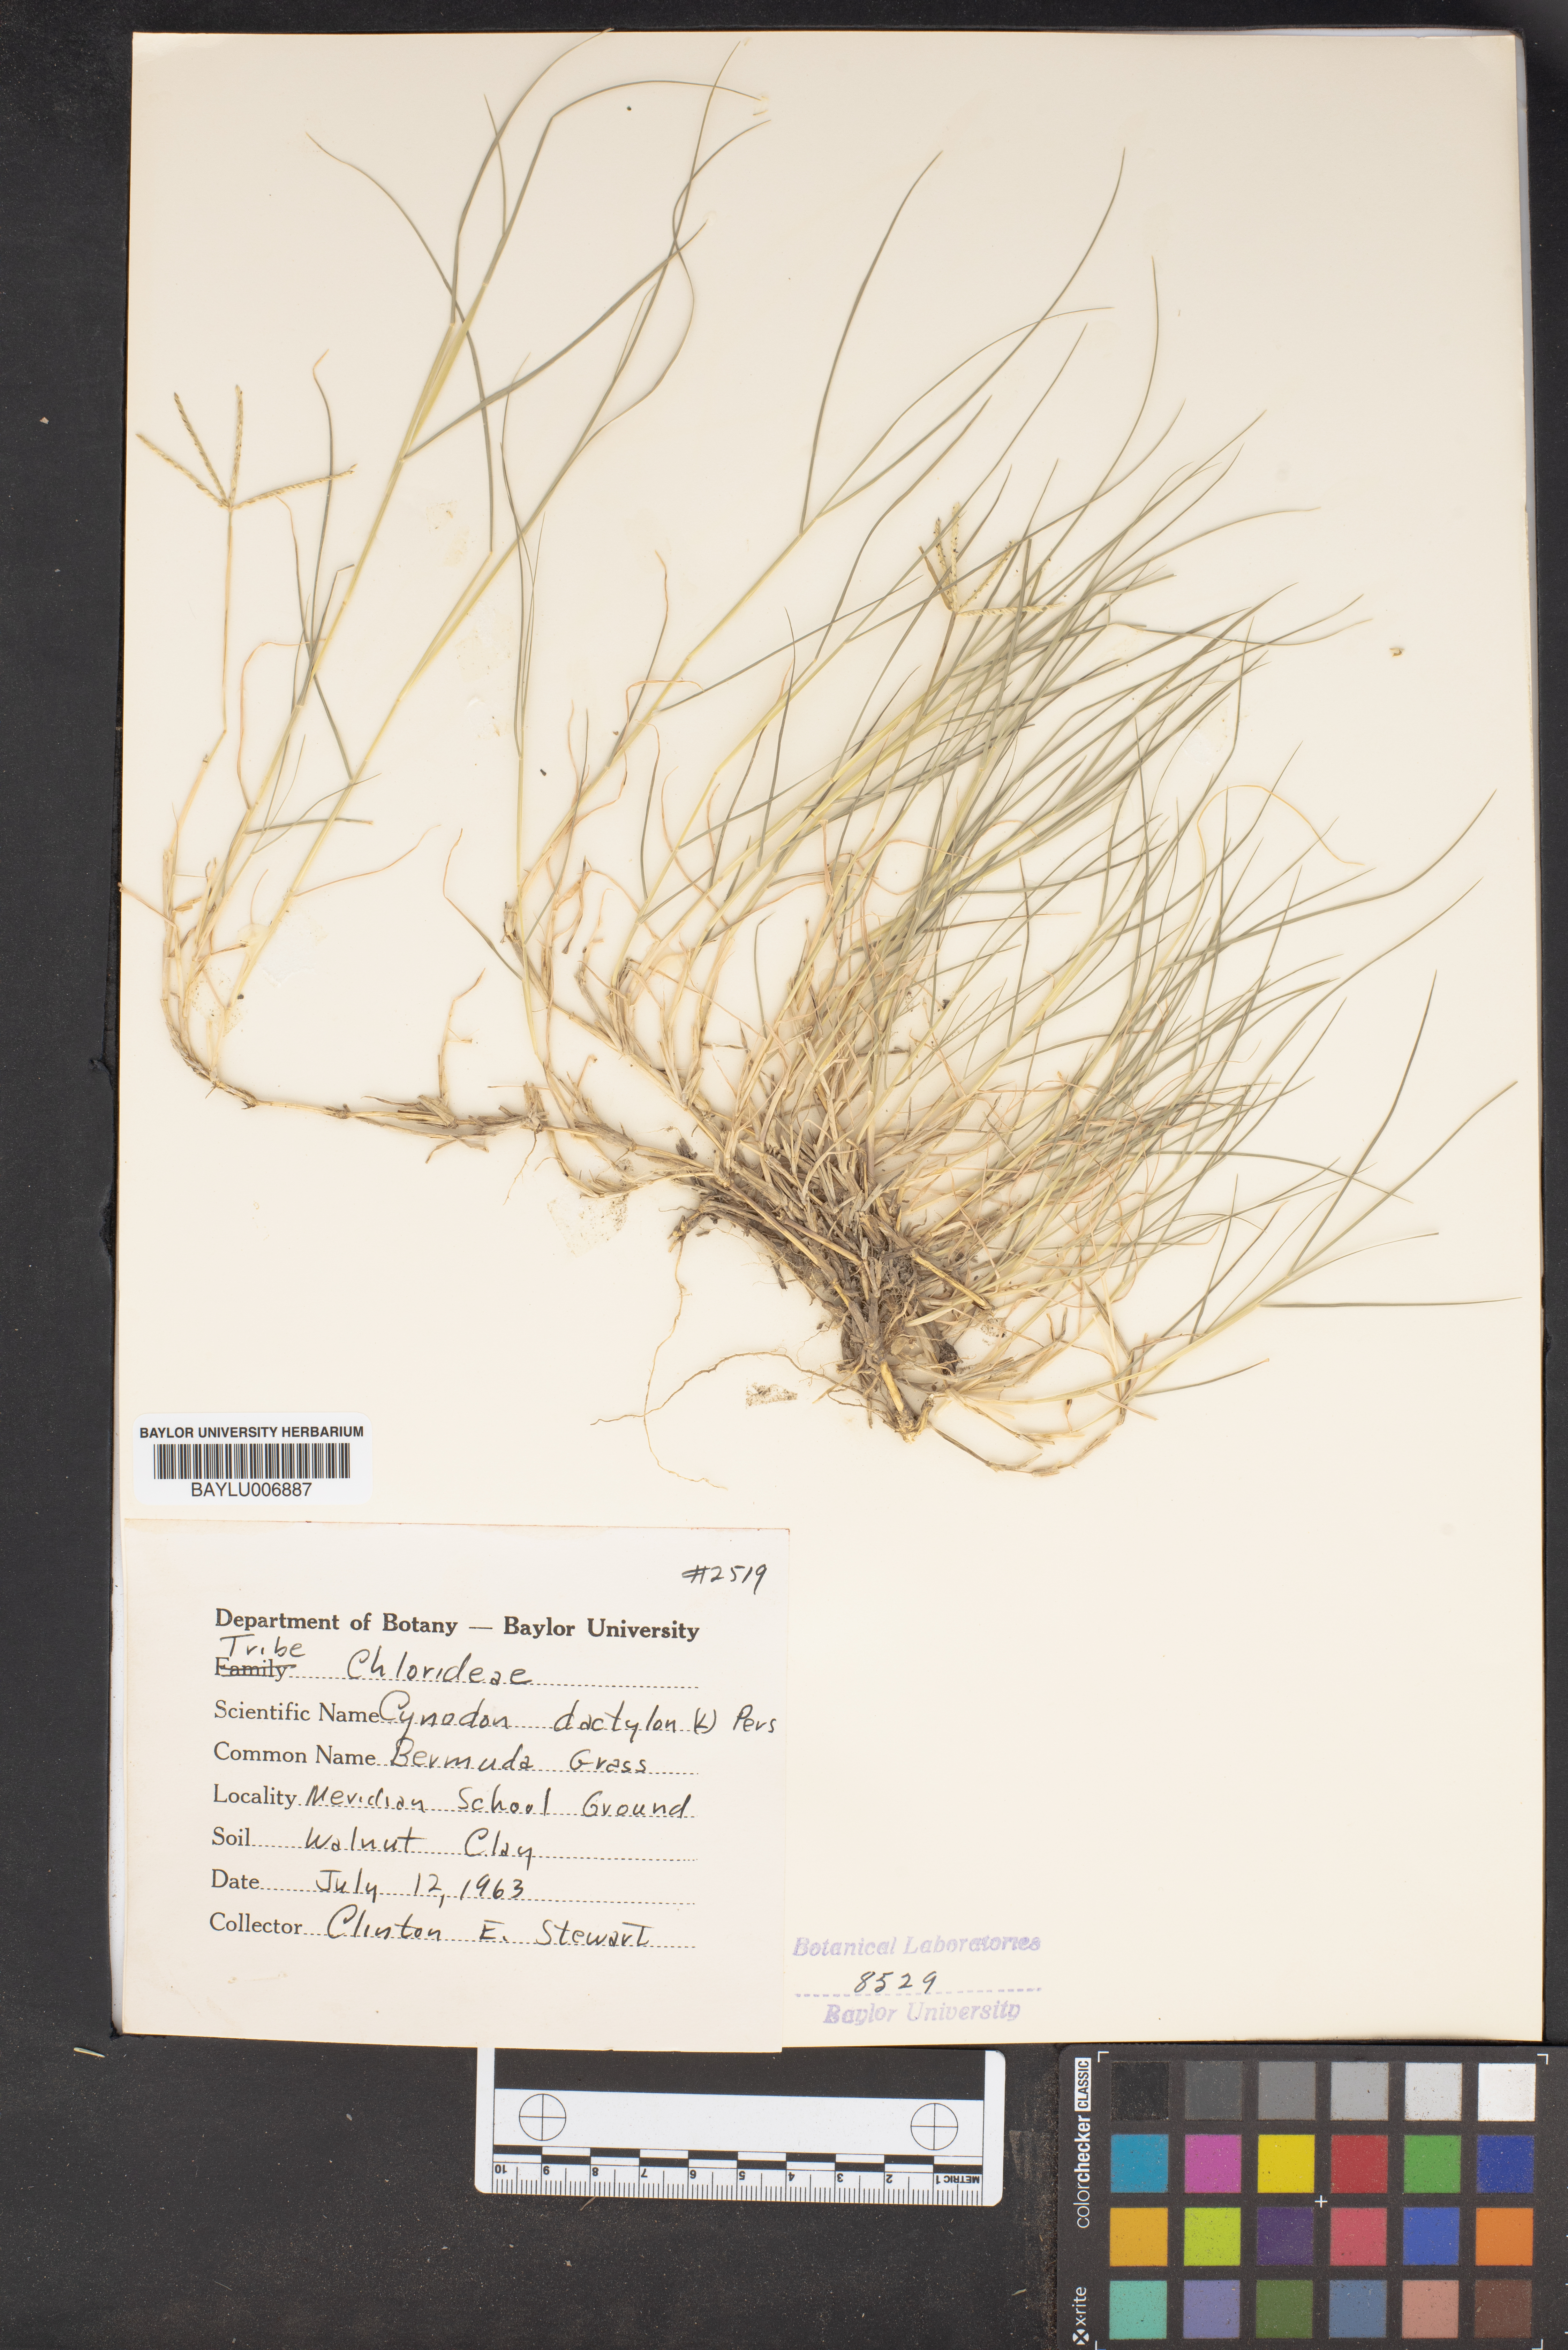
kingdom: Plantae
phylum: Tracheophyta
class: Liliopsida
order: Poales
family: Poaceae
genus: Cynodon
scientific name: Cynodon dactylon
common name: Bermuda grass
